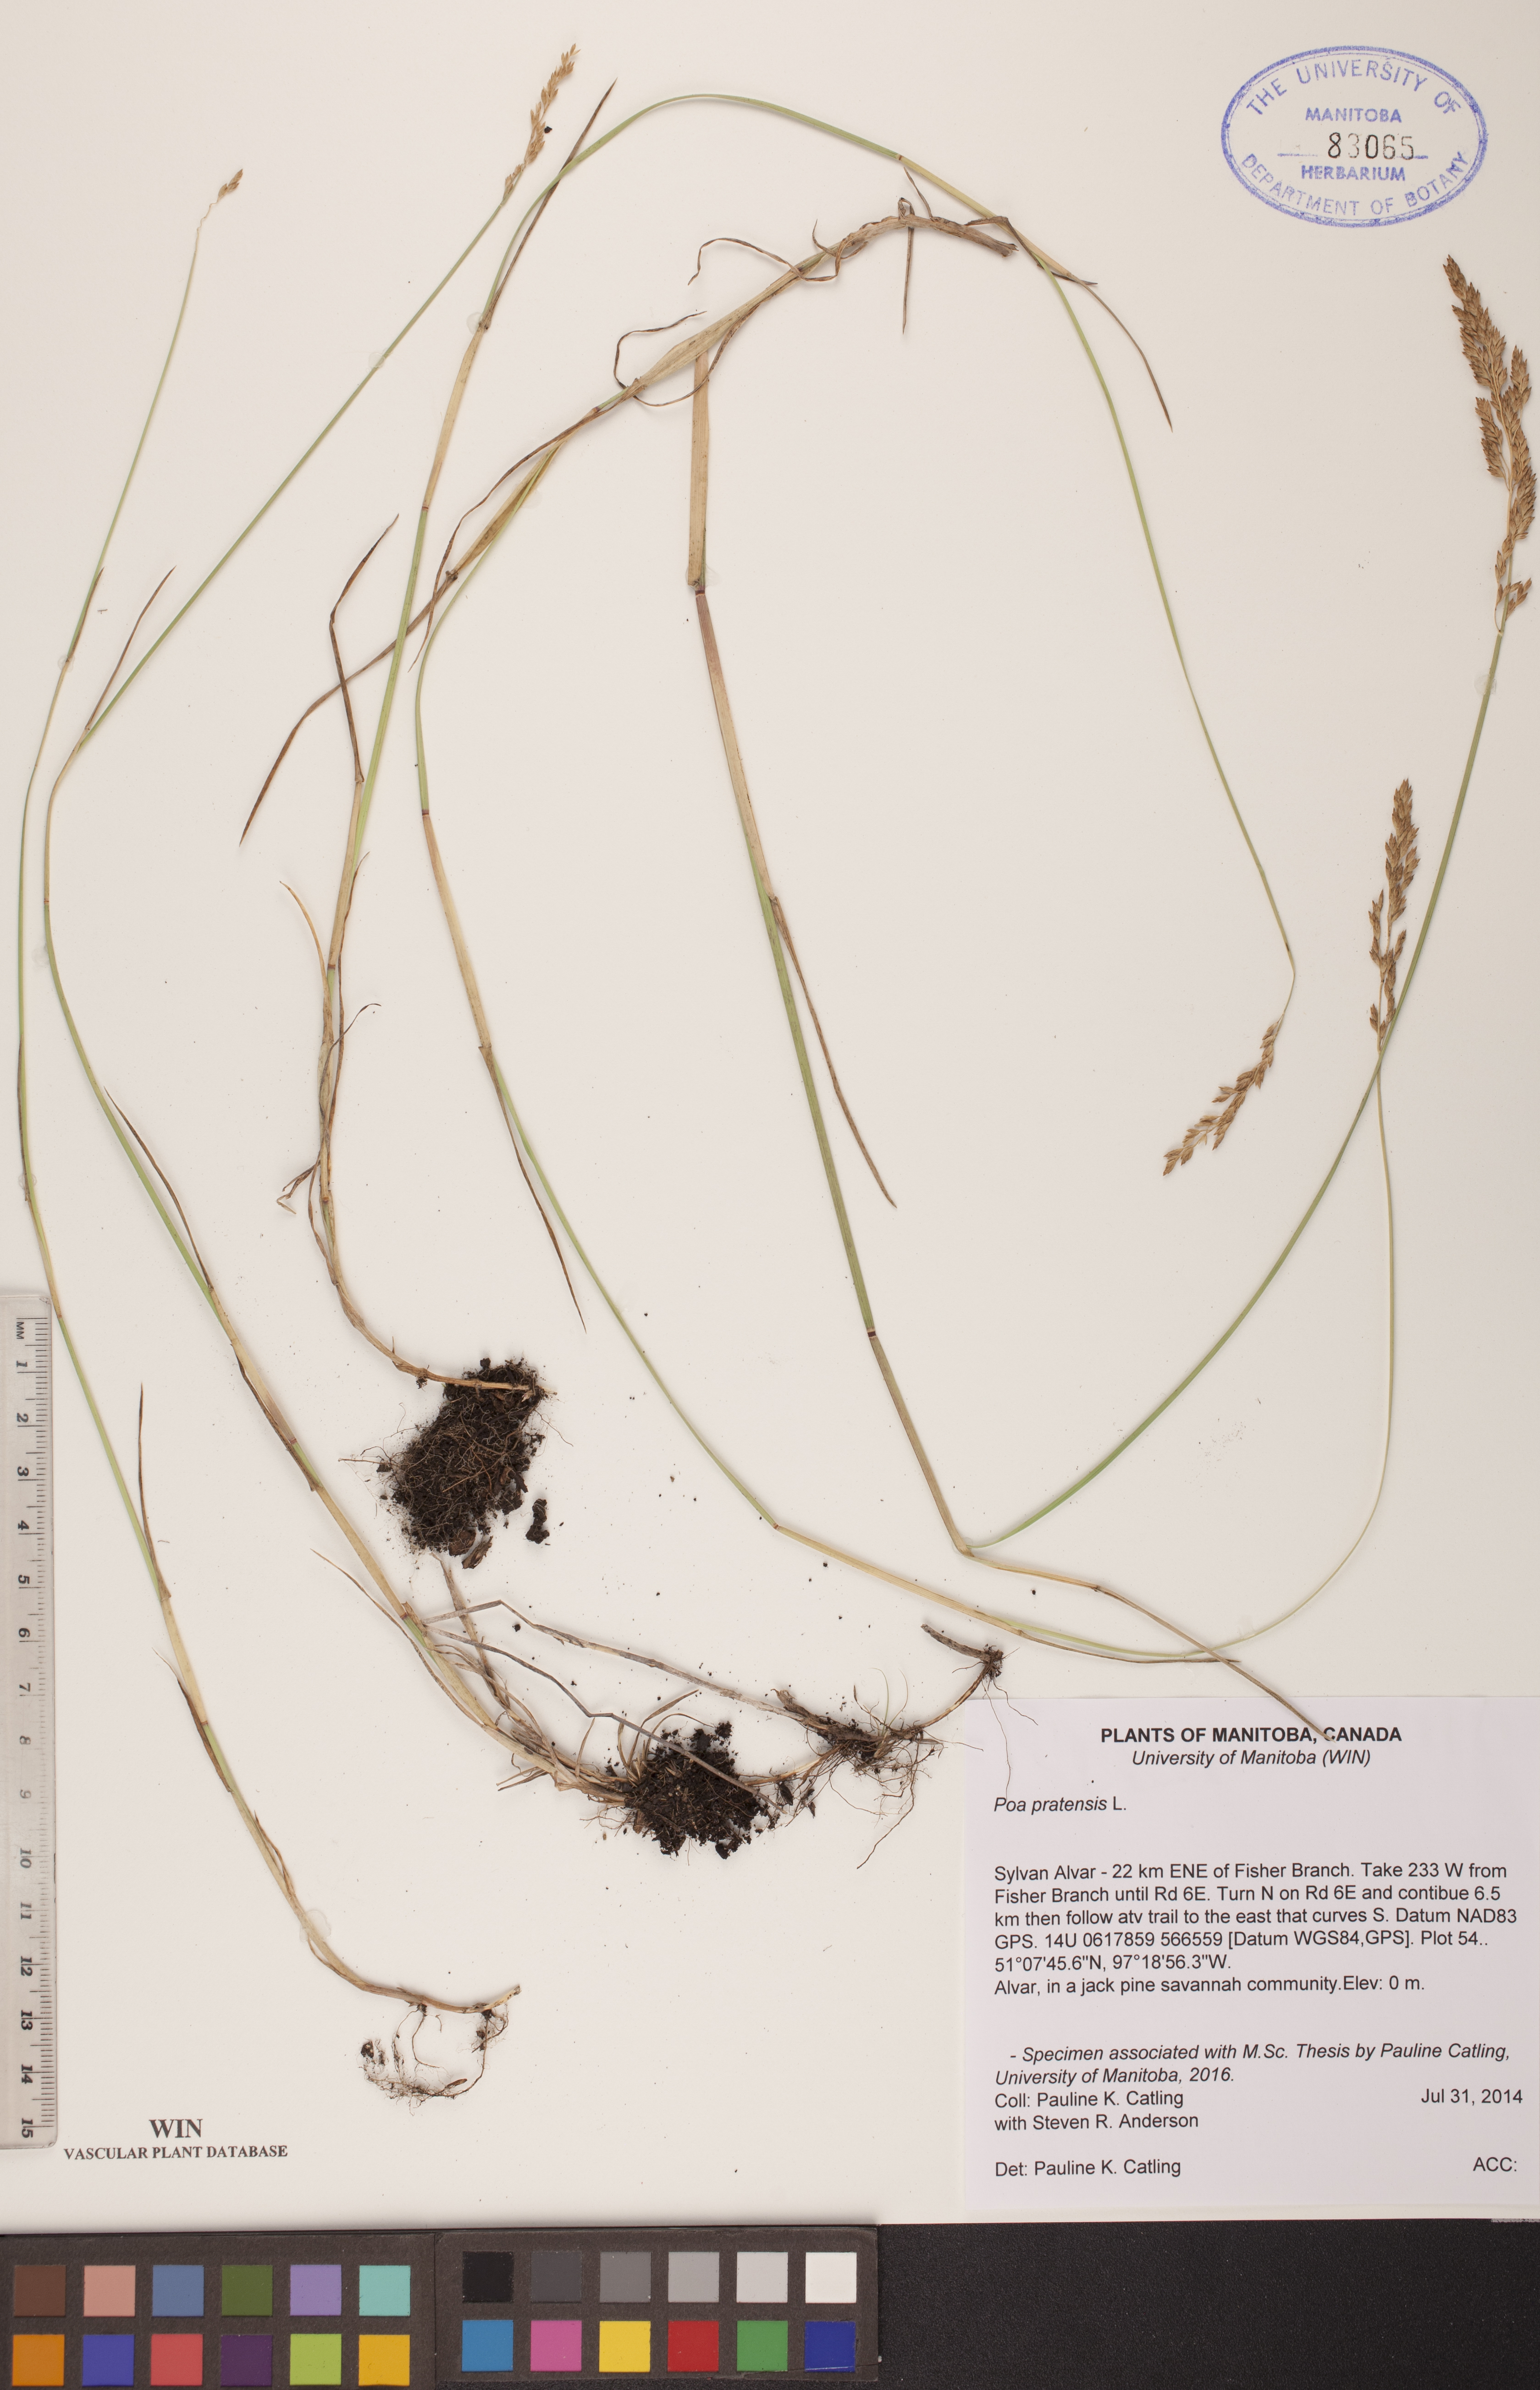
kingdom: Plantae
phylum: Tracheophyta
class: Liliopsida
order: Poales
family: Poaceae
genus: Poa
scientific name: Poa pratensis
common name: Kentucky bluegrass
